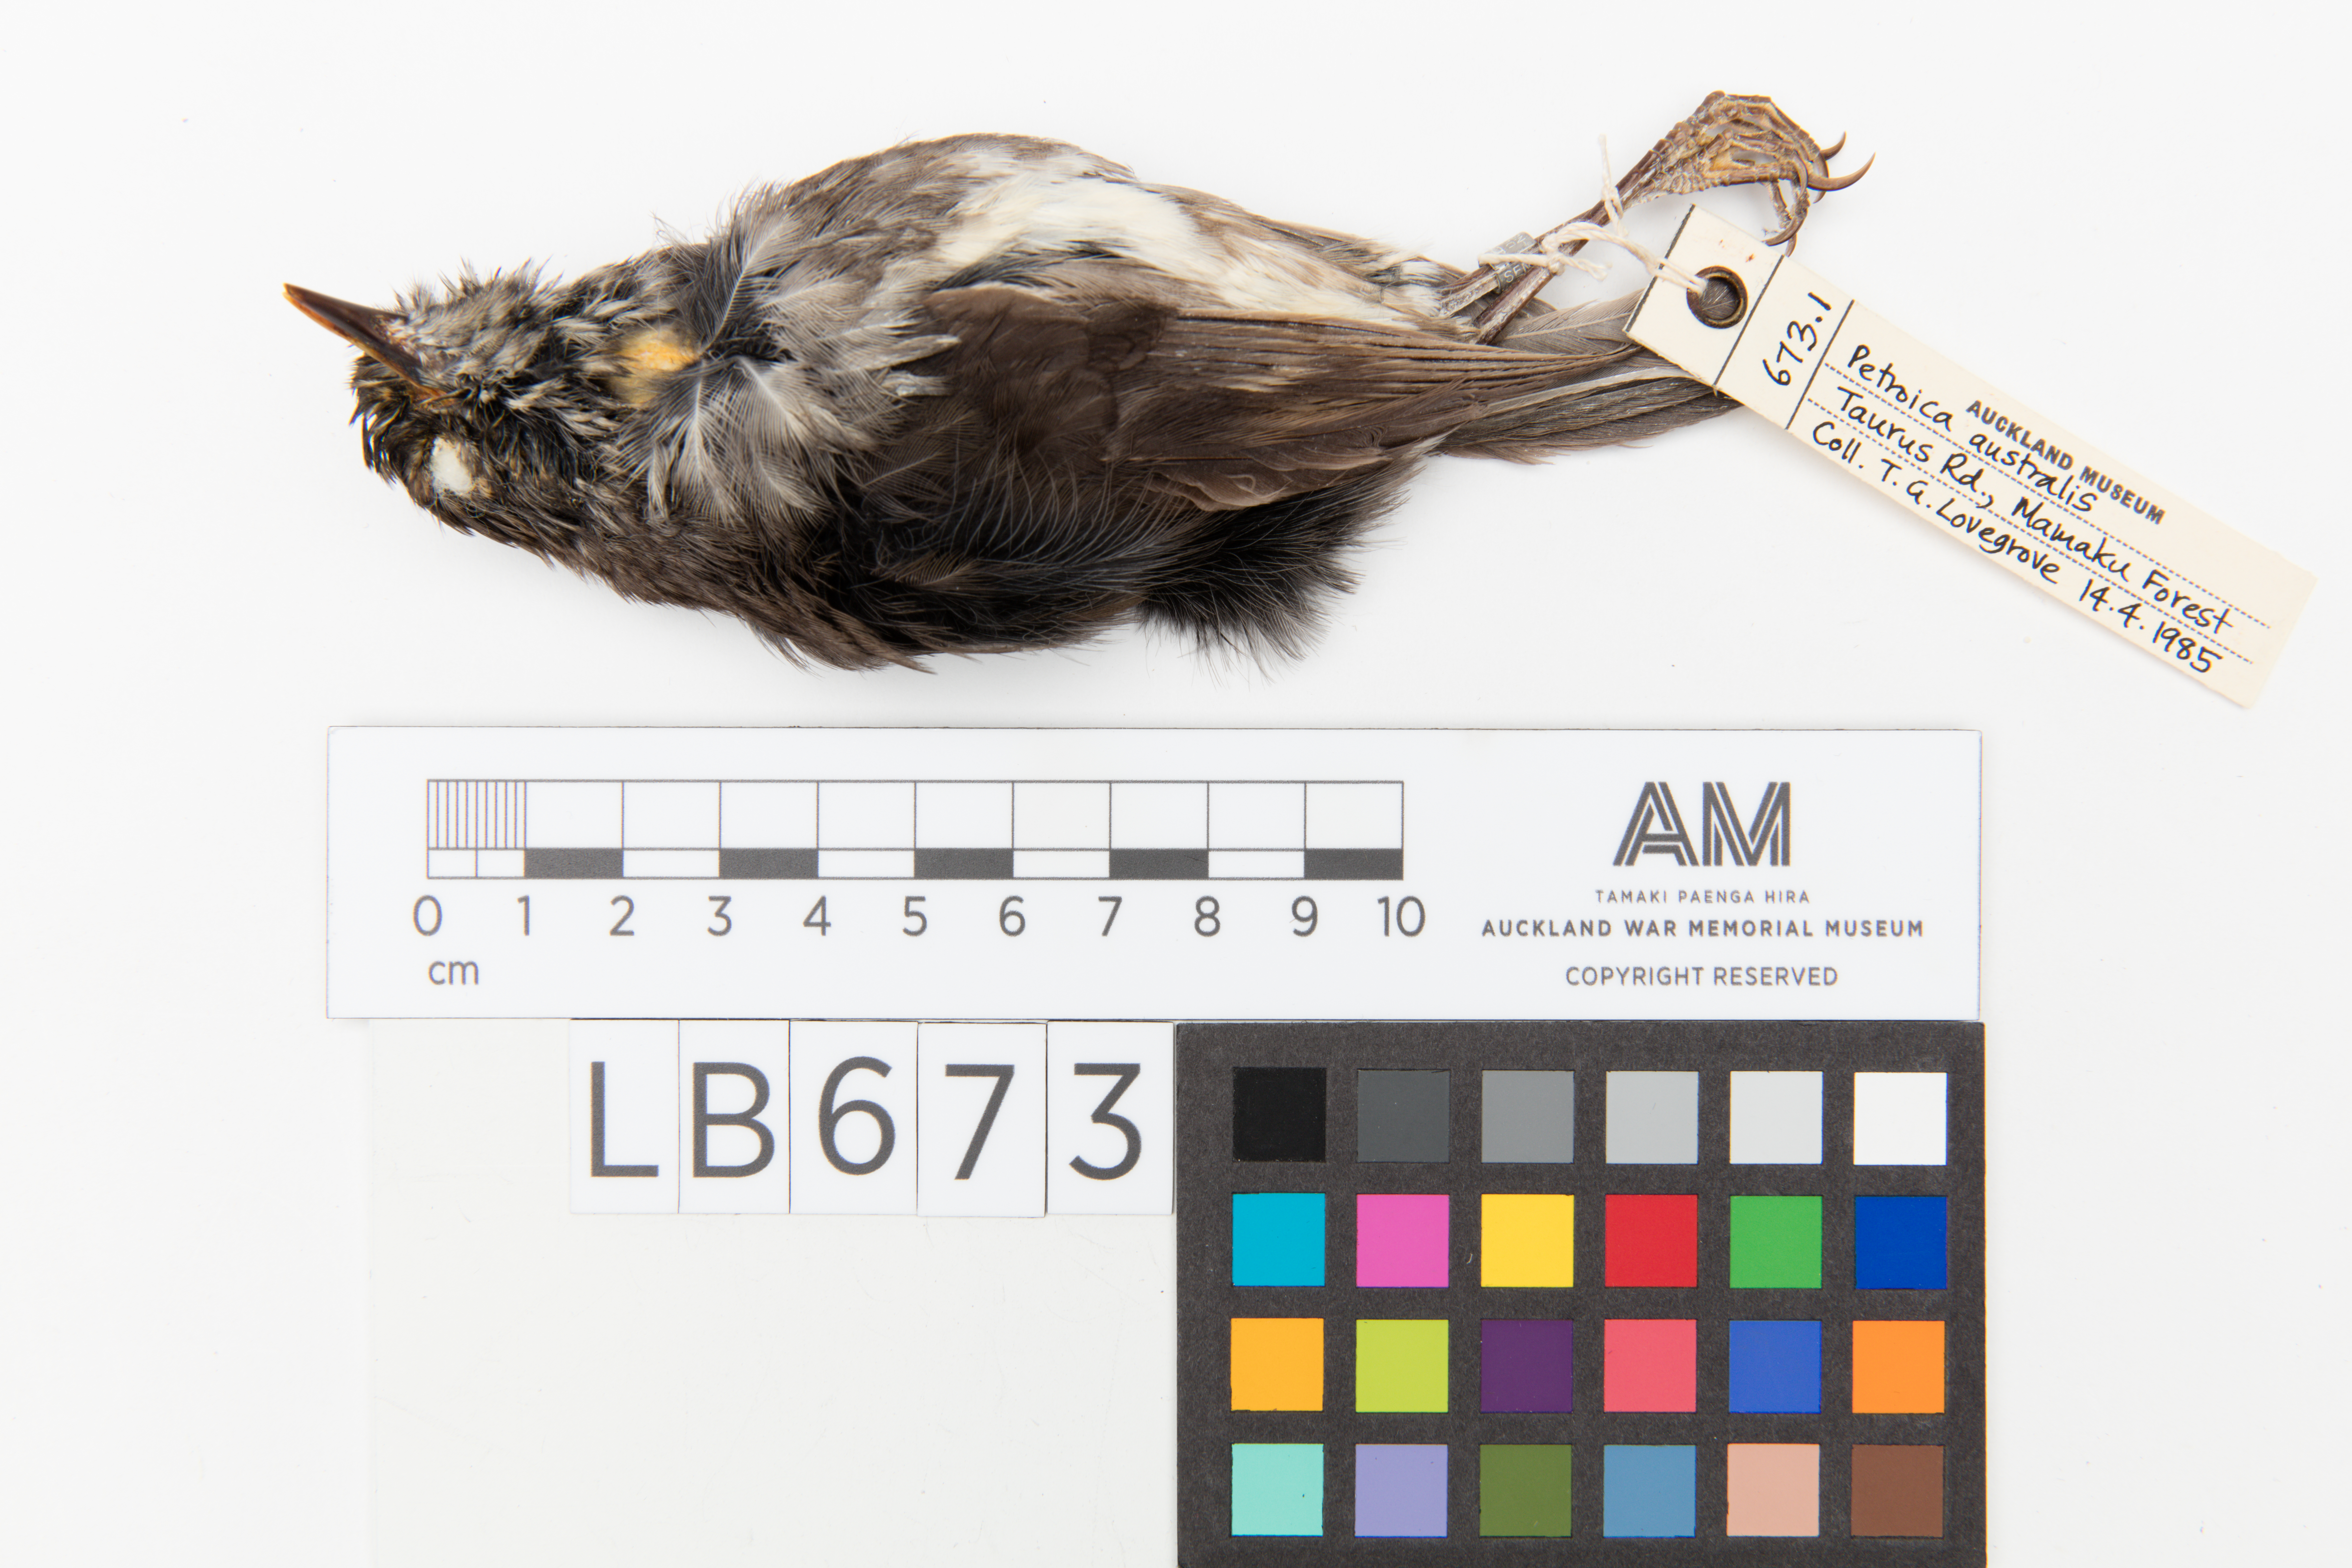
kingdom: Animalia
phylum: Chordata
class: Aves
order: Passeriformes
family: Petroicidae
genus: Petroica
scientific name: Petroica australis
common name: New zealand robin
